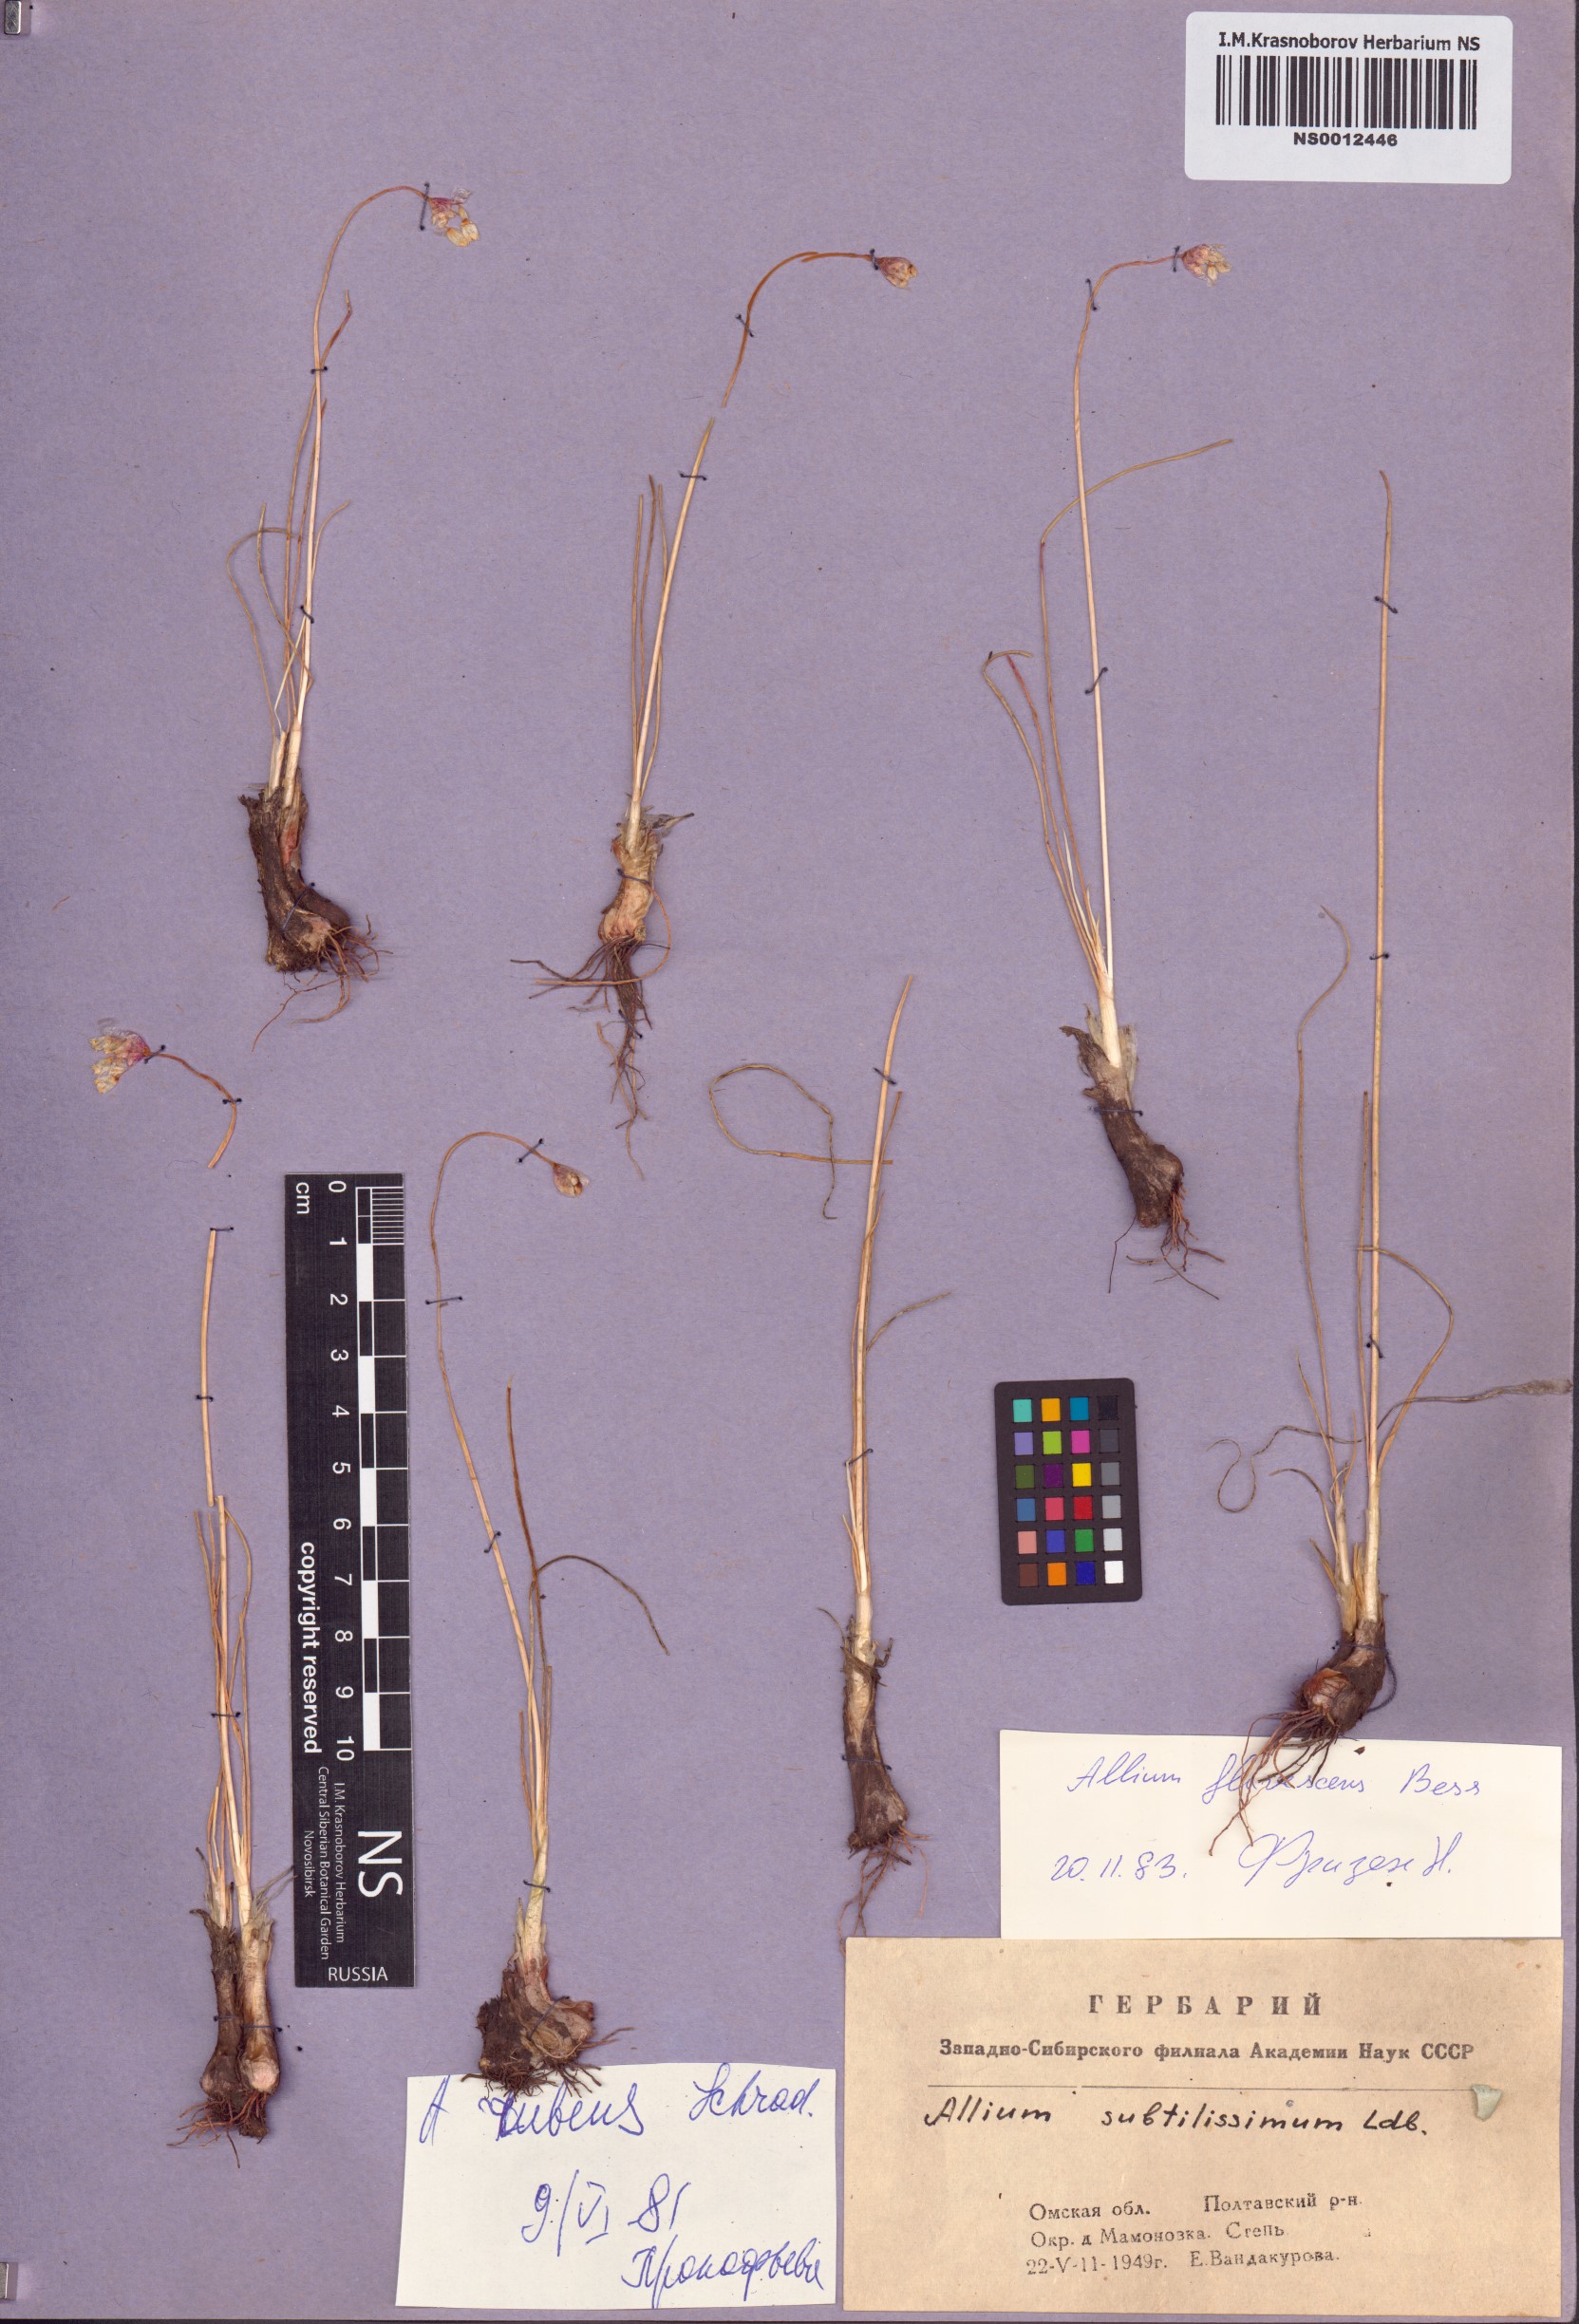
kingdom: Plantae
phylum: Tracheophyta
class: Liliopsida
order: Asparagales
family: Amaryllidaceae
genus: Allium
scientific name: Allium flavescens
